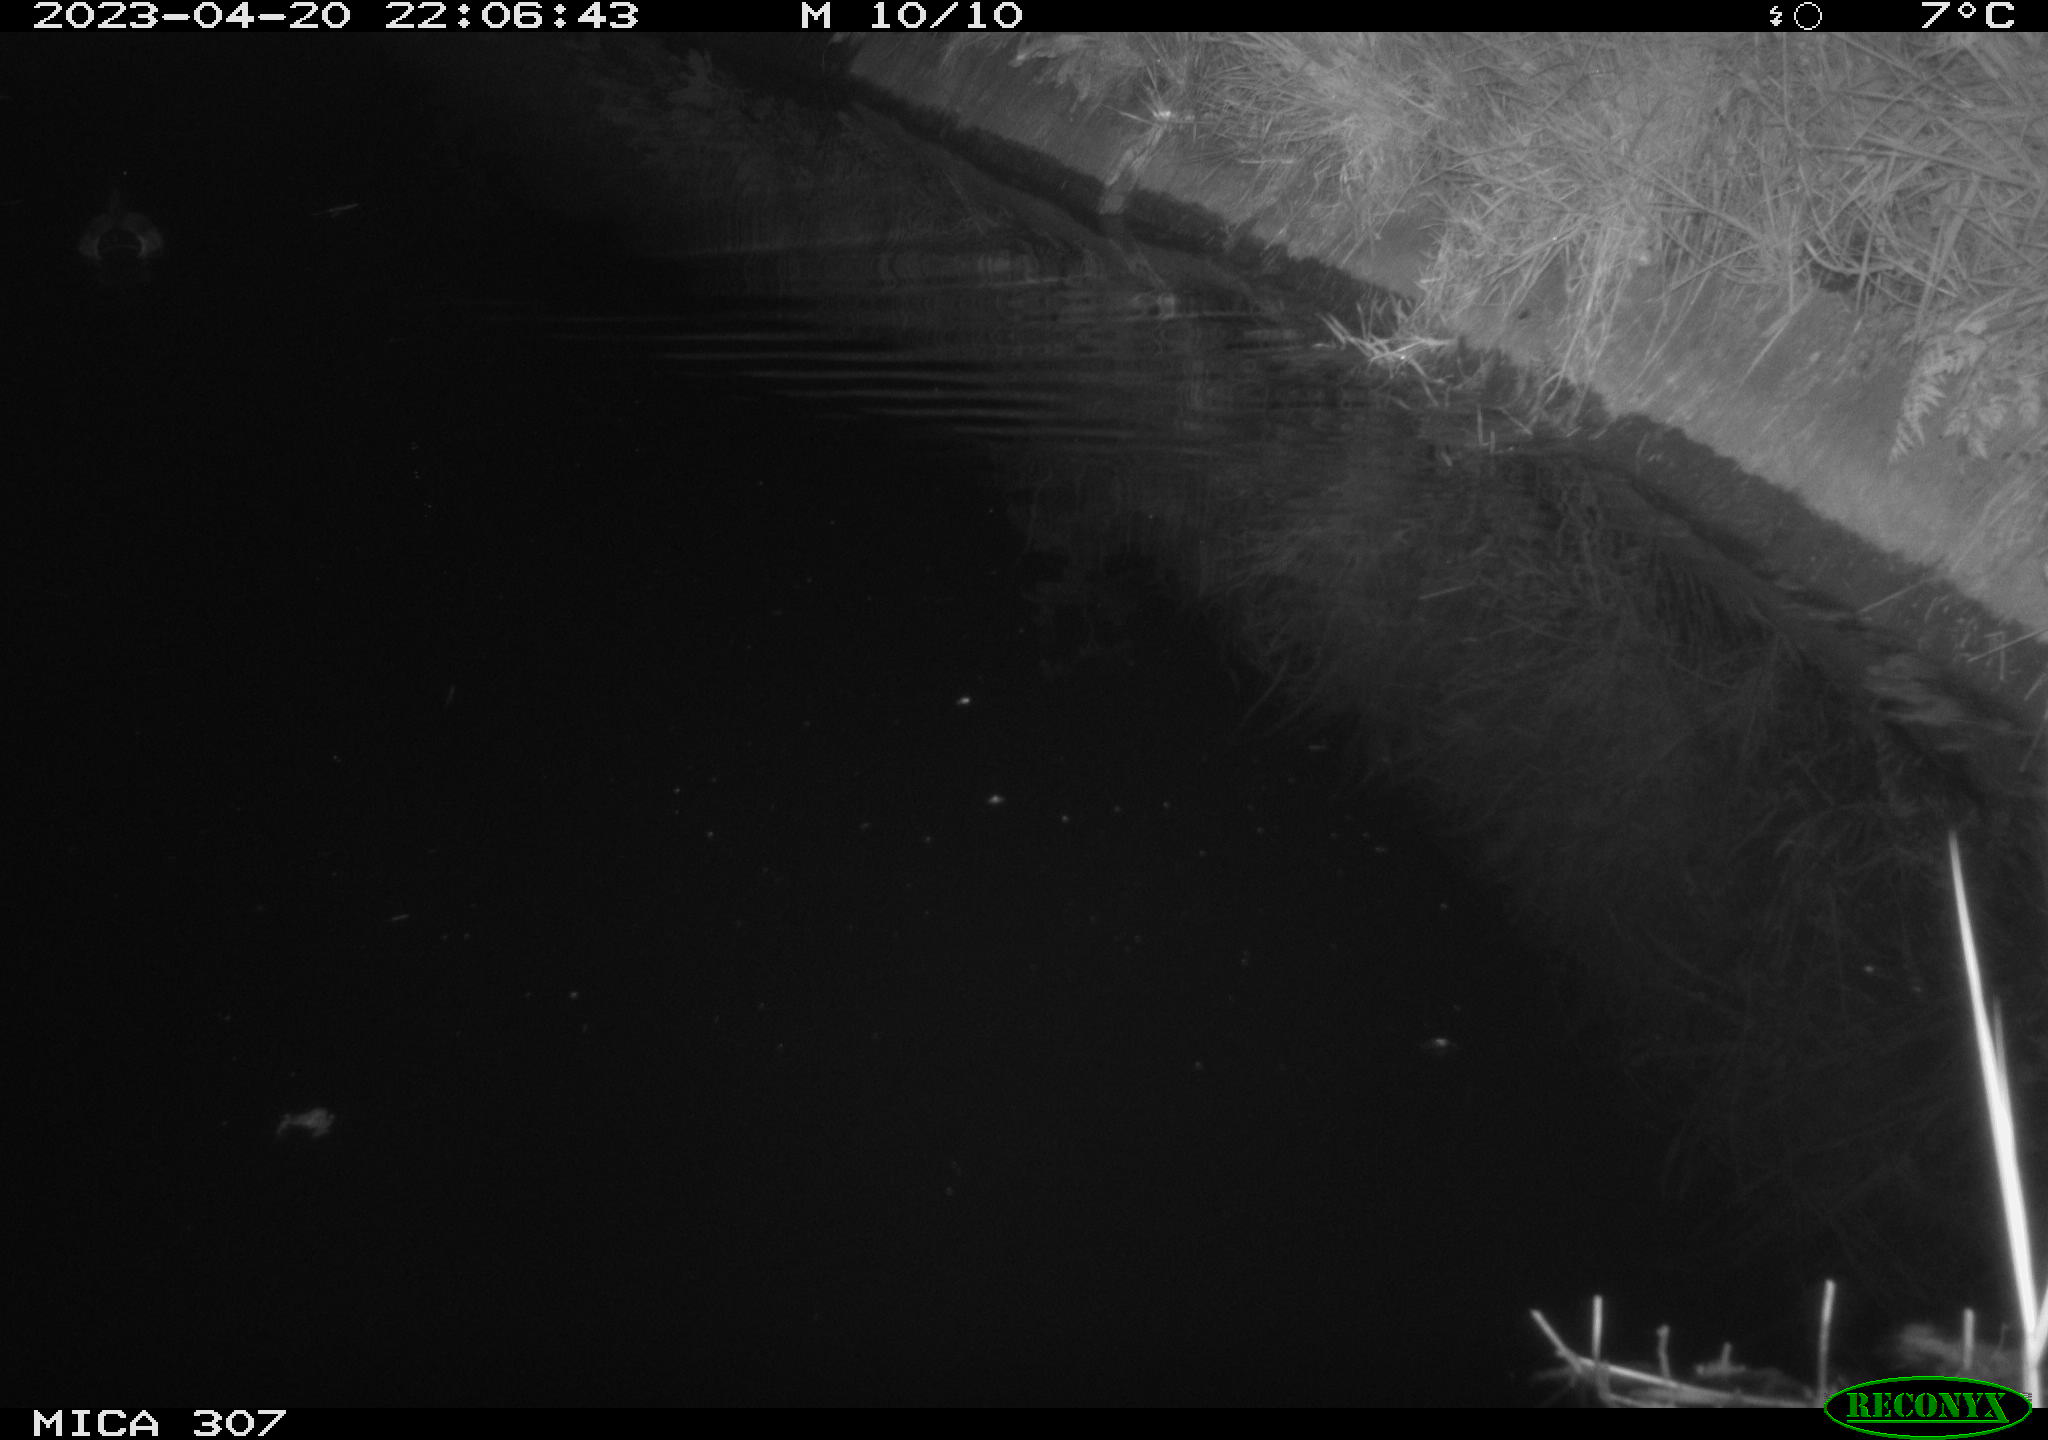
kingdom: Animalia
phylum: Chordata
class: Aves
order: Anseriformes
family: Anatidae
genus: Anas
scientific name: Anas
